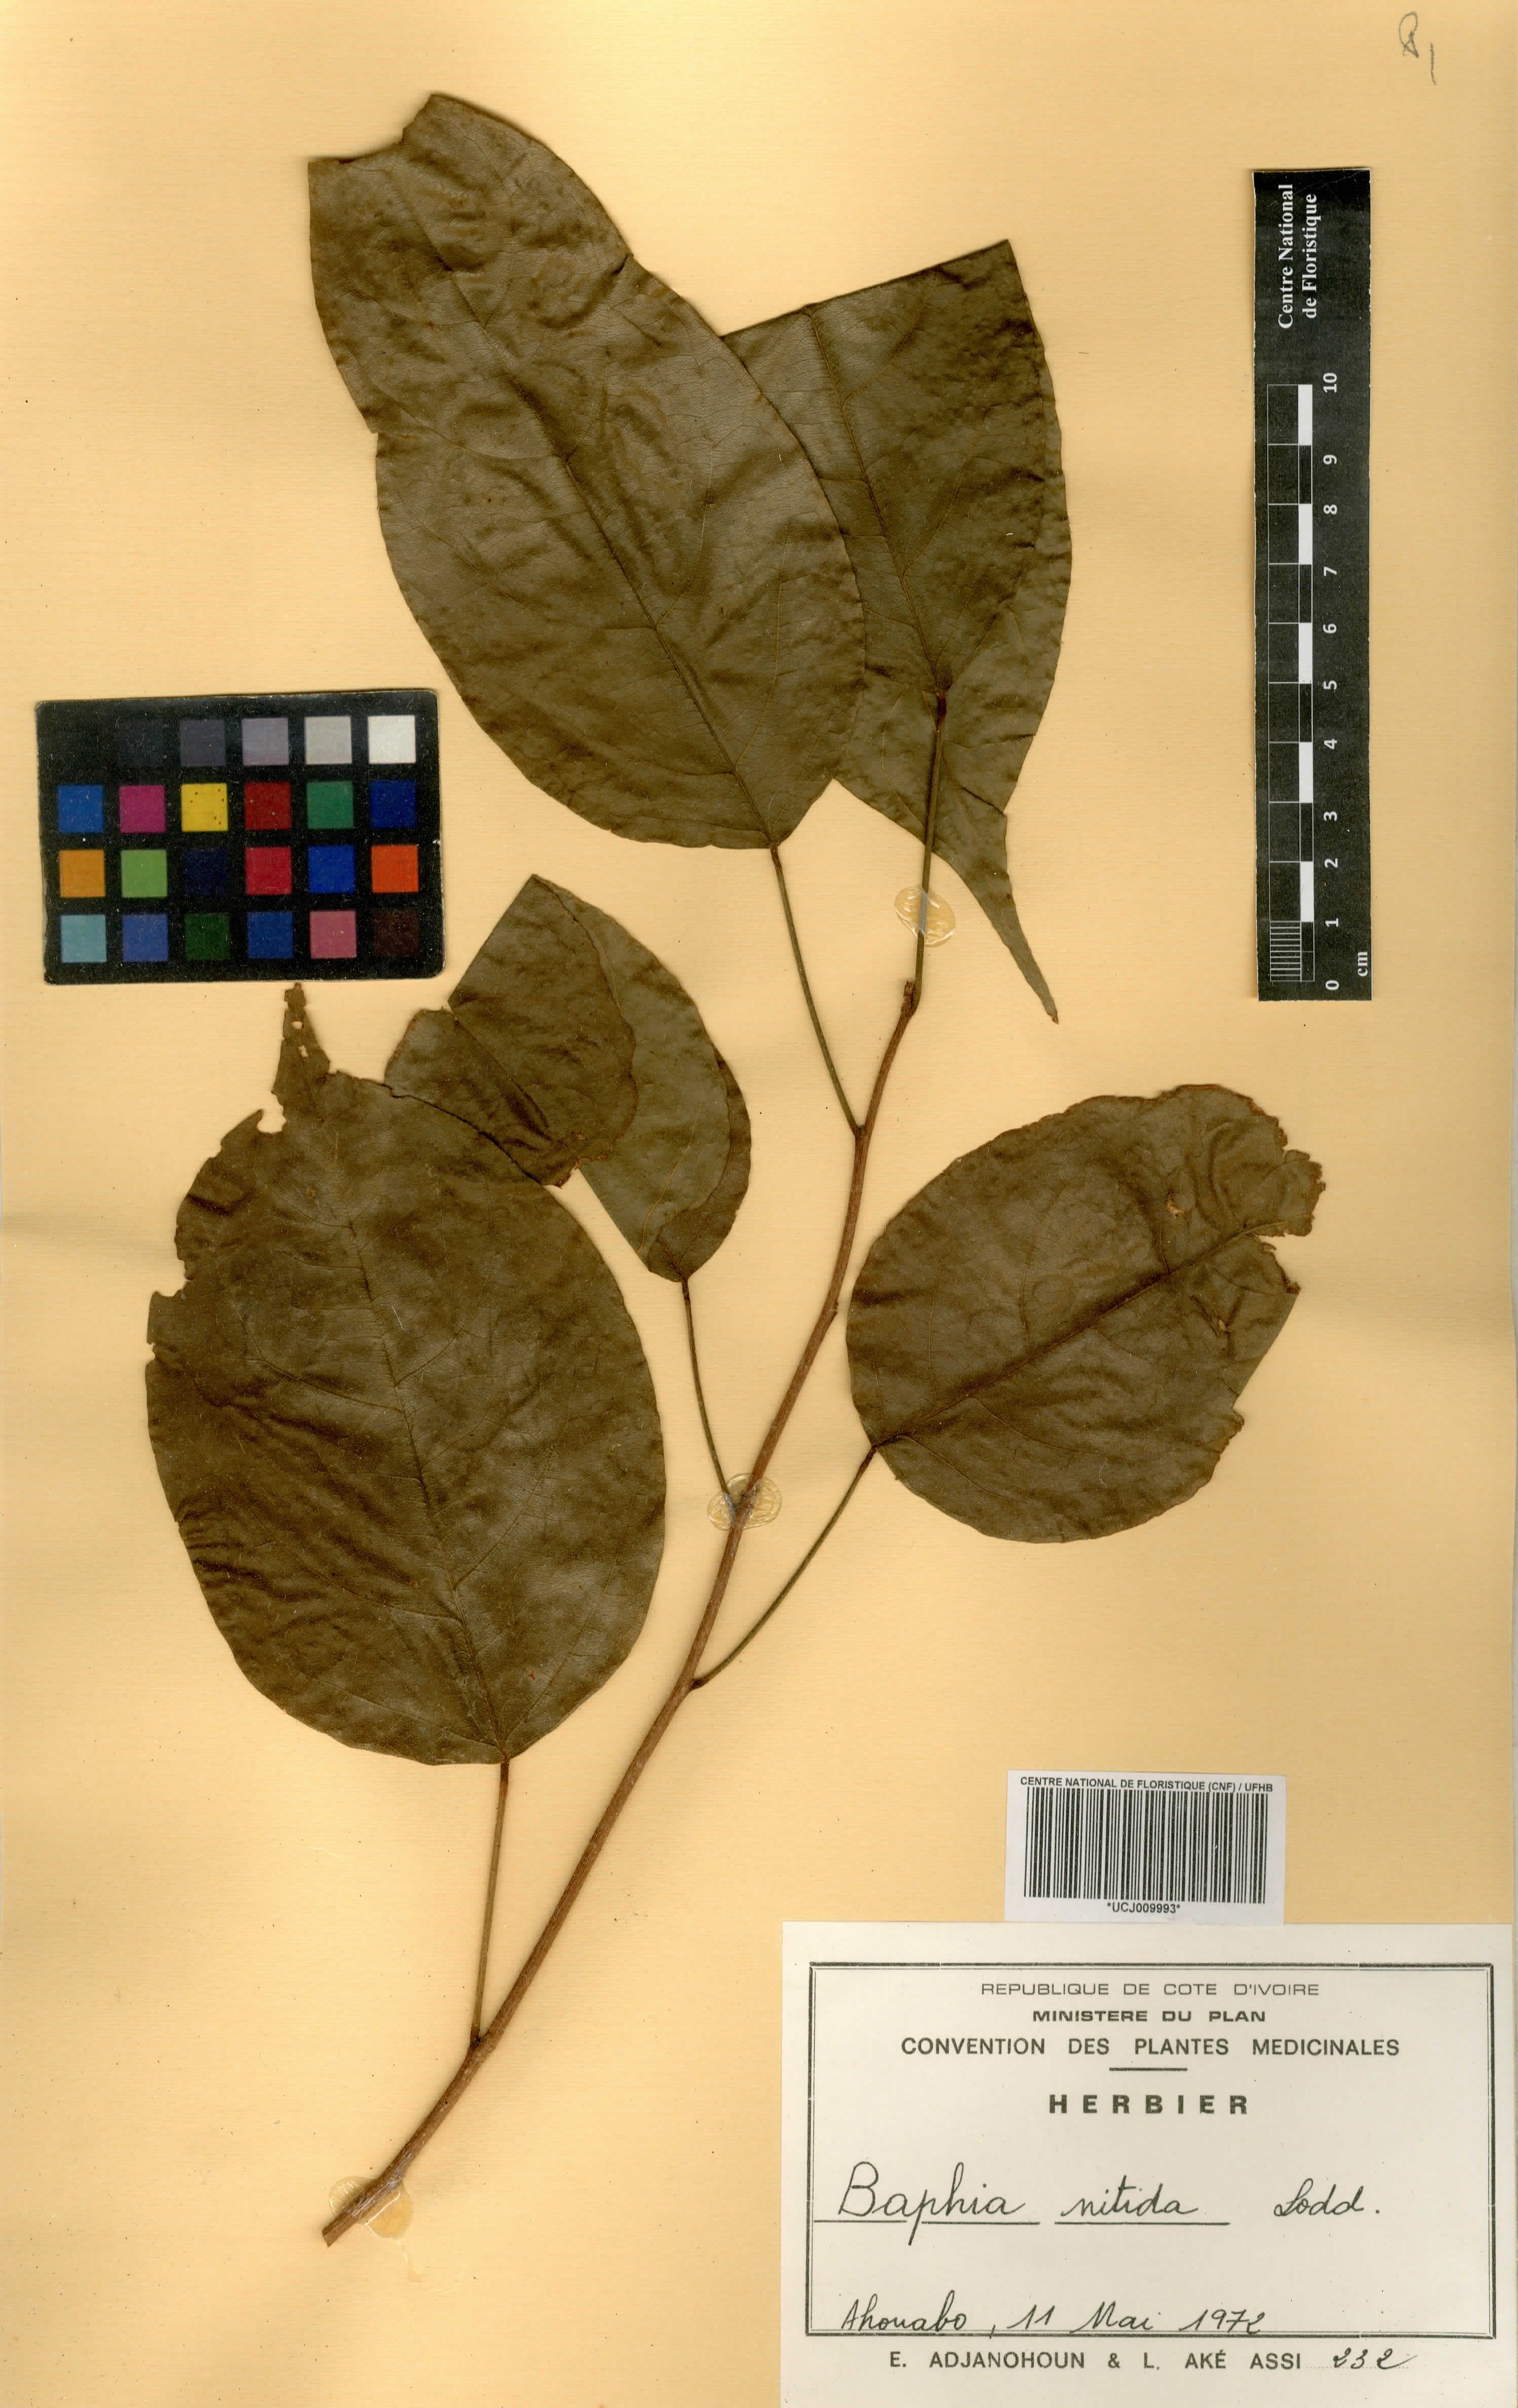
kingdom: Plantae
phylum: Tracheophyta
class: Magnoliopsida
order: Fabales
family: Fabaceae
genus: Baphia
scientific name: Baphia nitida
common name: Camwood
